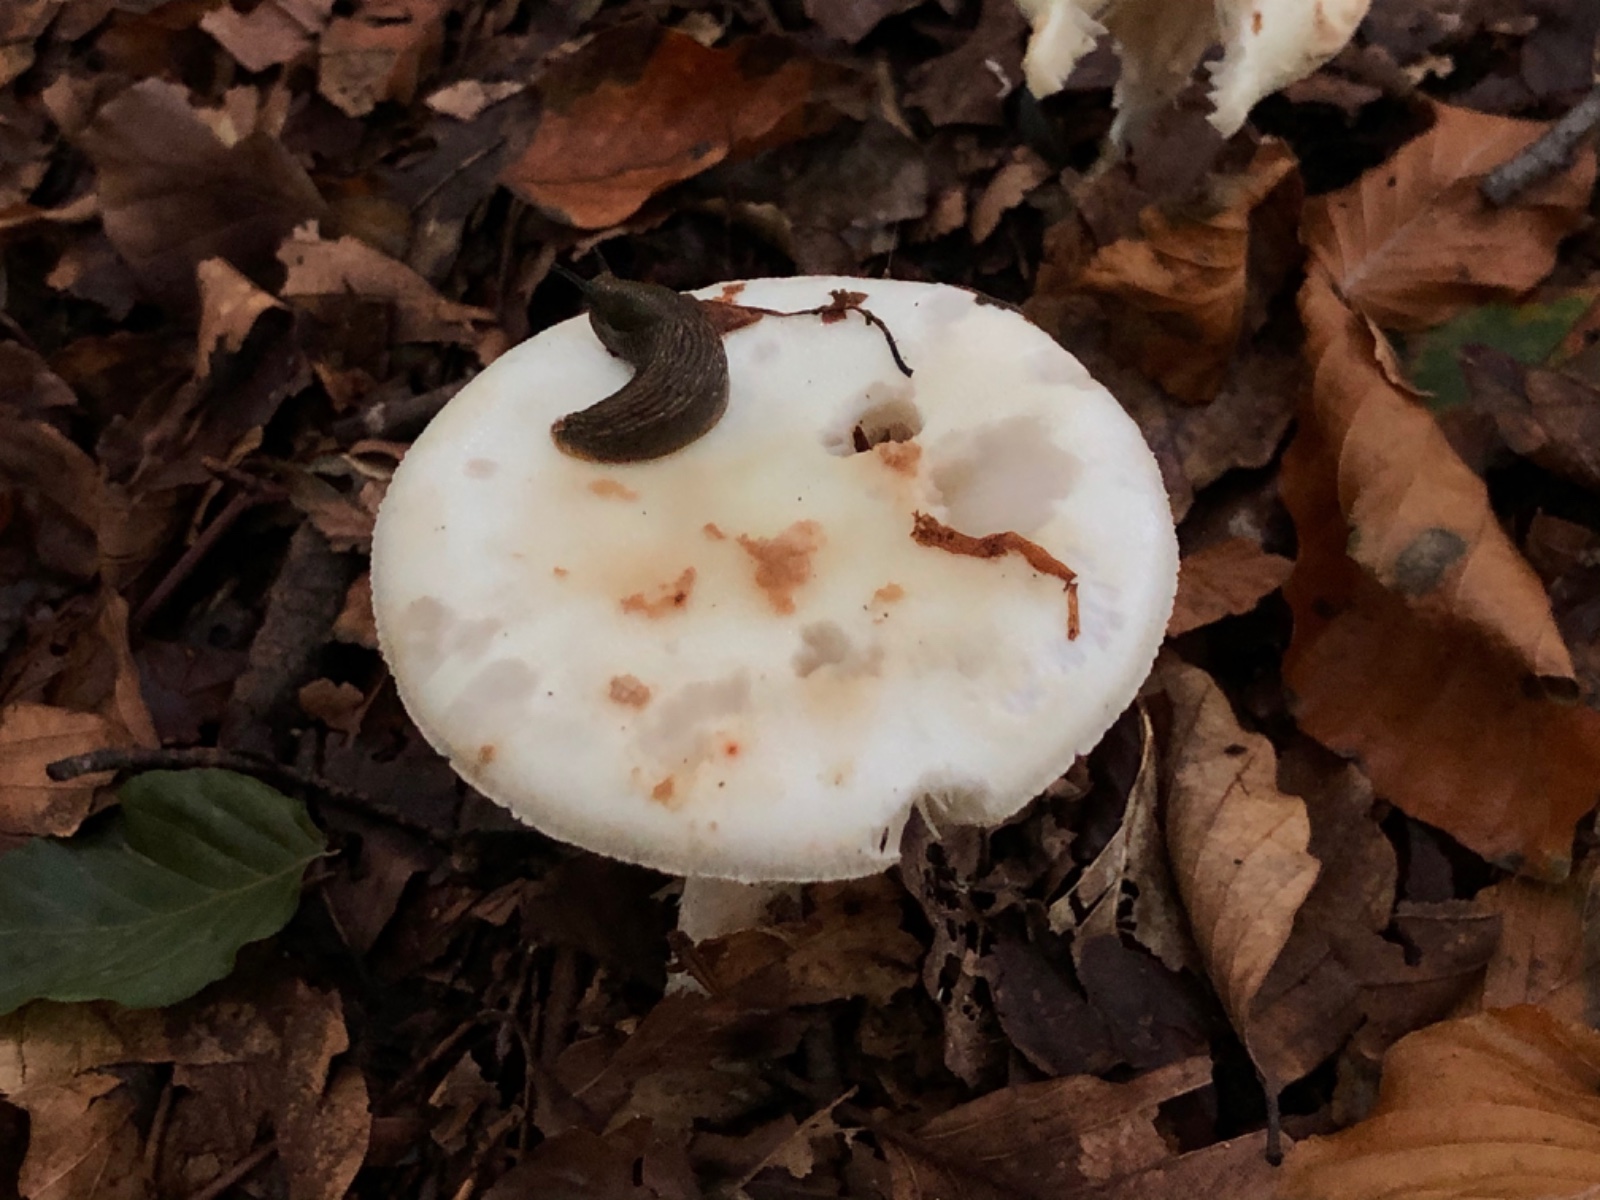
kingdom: Fungi
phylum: Basidiomycota
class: Agaricomycetes
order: Agaricales
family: Amanitaceae
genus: Amanita
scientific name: Amanita citrina
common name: kugleknoldet fluesvamp
